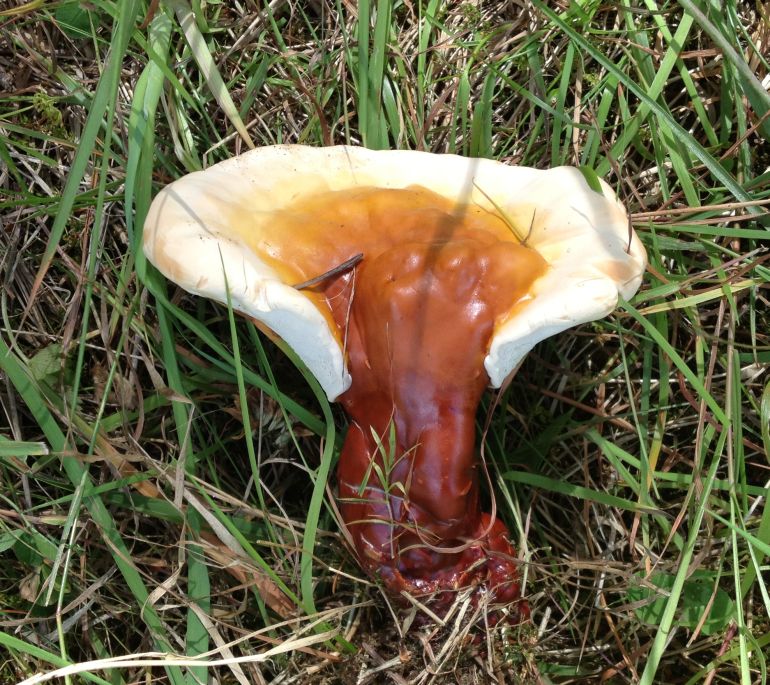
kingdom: Fungi
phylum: Basidiomycota
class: Agaricomycetes
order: Polyporales
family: Polyporaceae
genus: Ganoderma
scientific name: Ganoderma lucidum
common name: skinnende lakporesvamp
